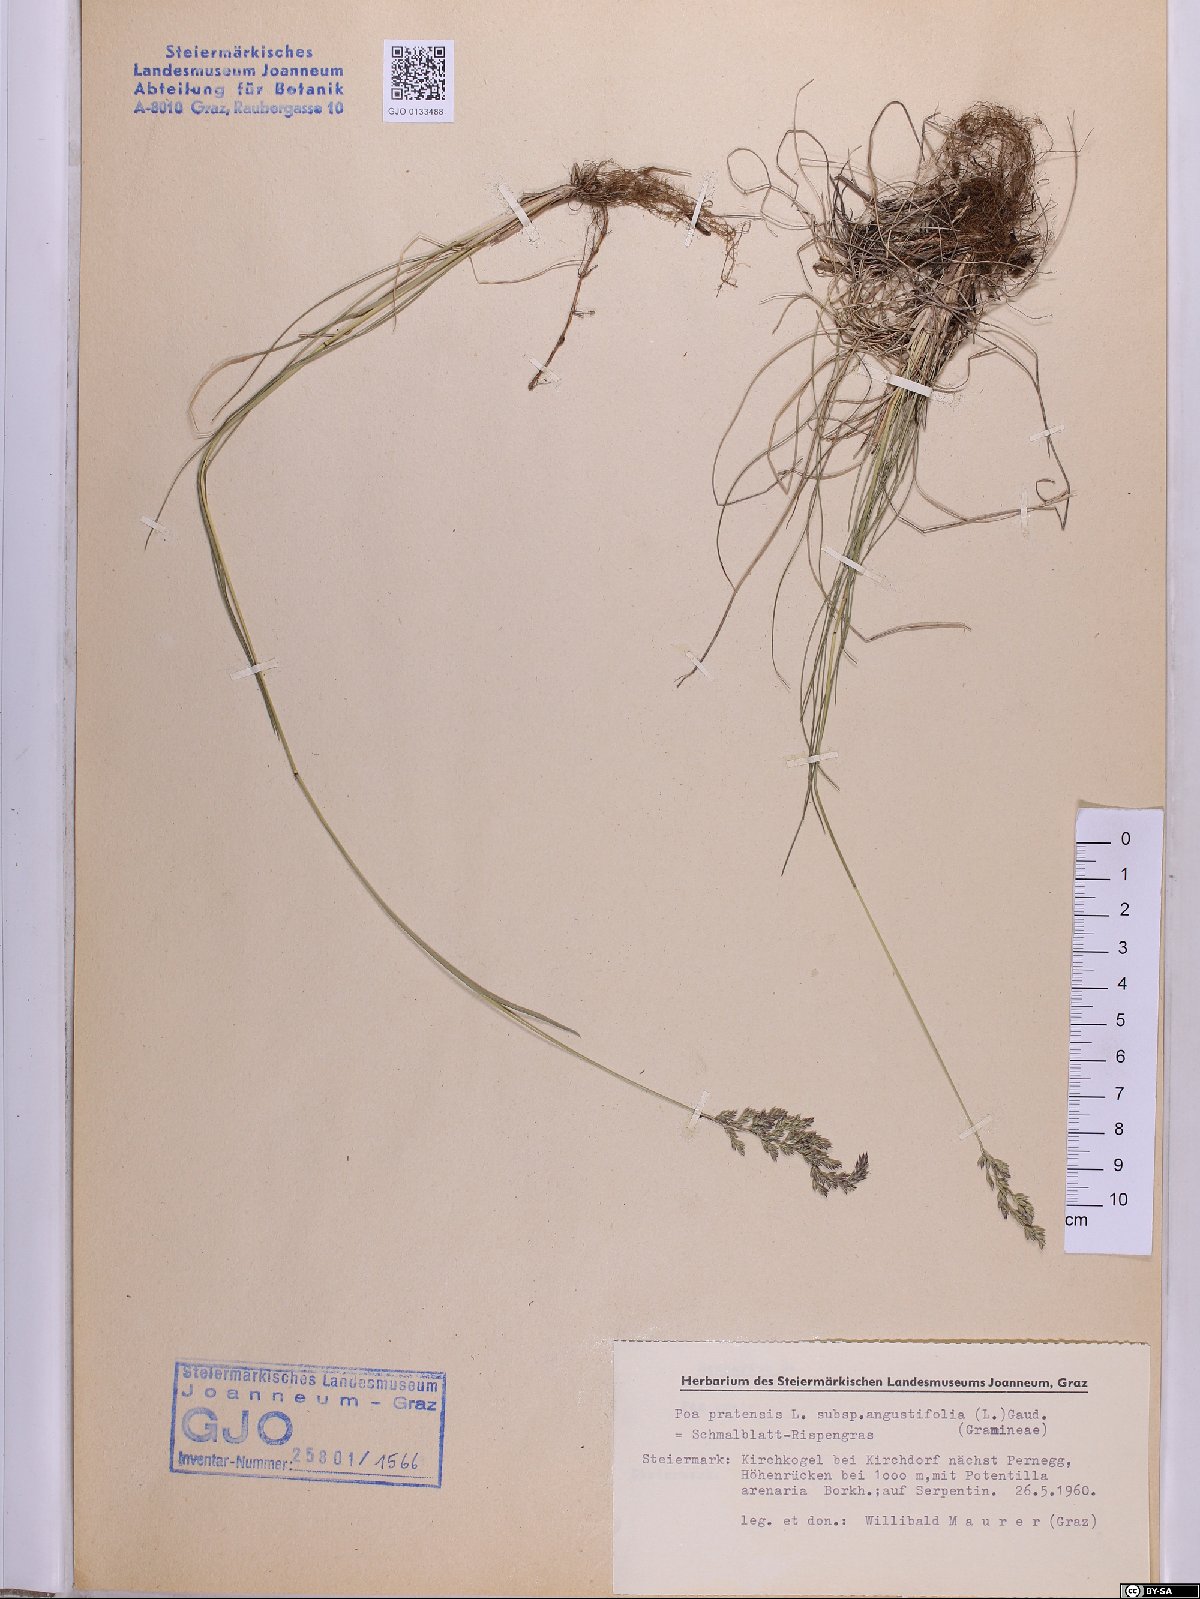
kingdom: Plantae
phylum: Tracheophyta
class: Liliopsida
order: Poales
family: Poaceae
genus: Poa
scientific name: Poa angustifolia
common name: Narrow-leaved meadow-grass
